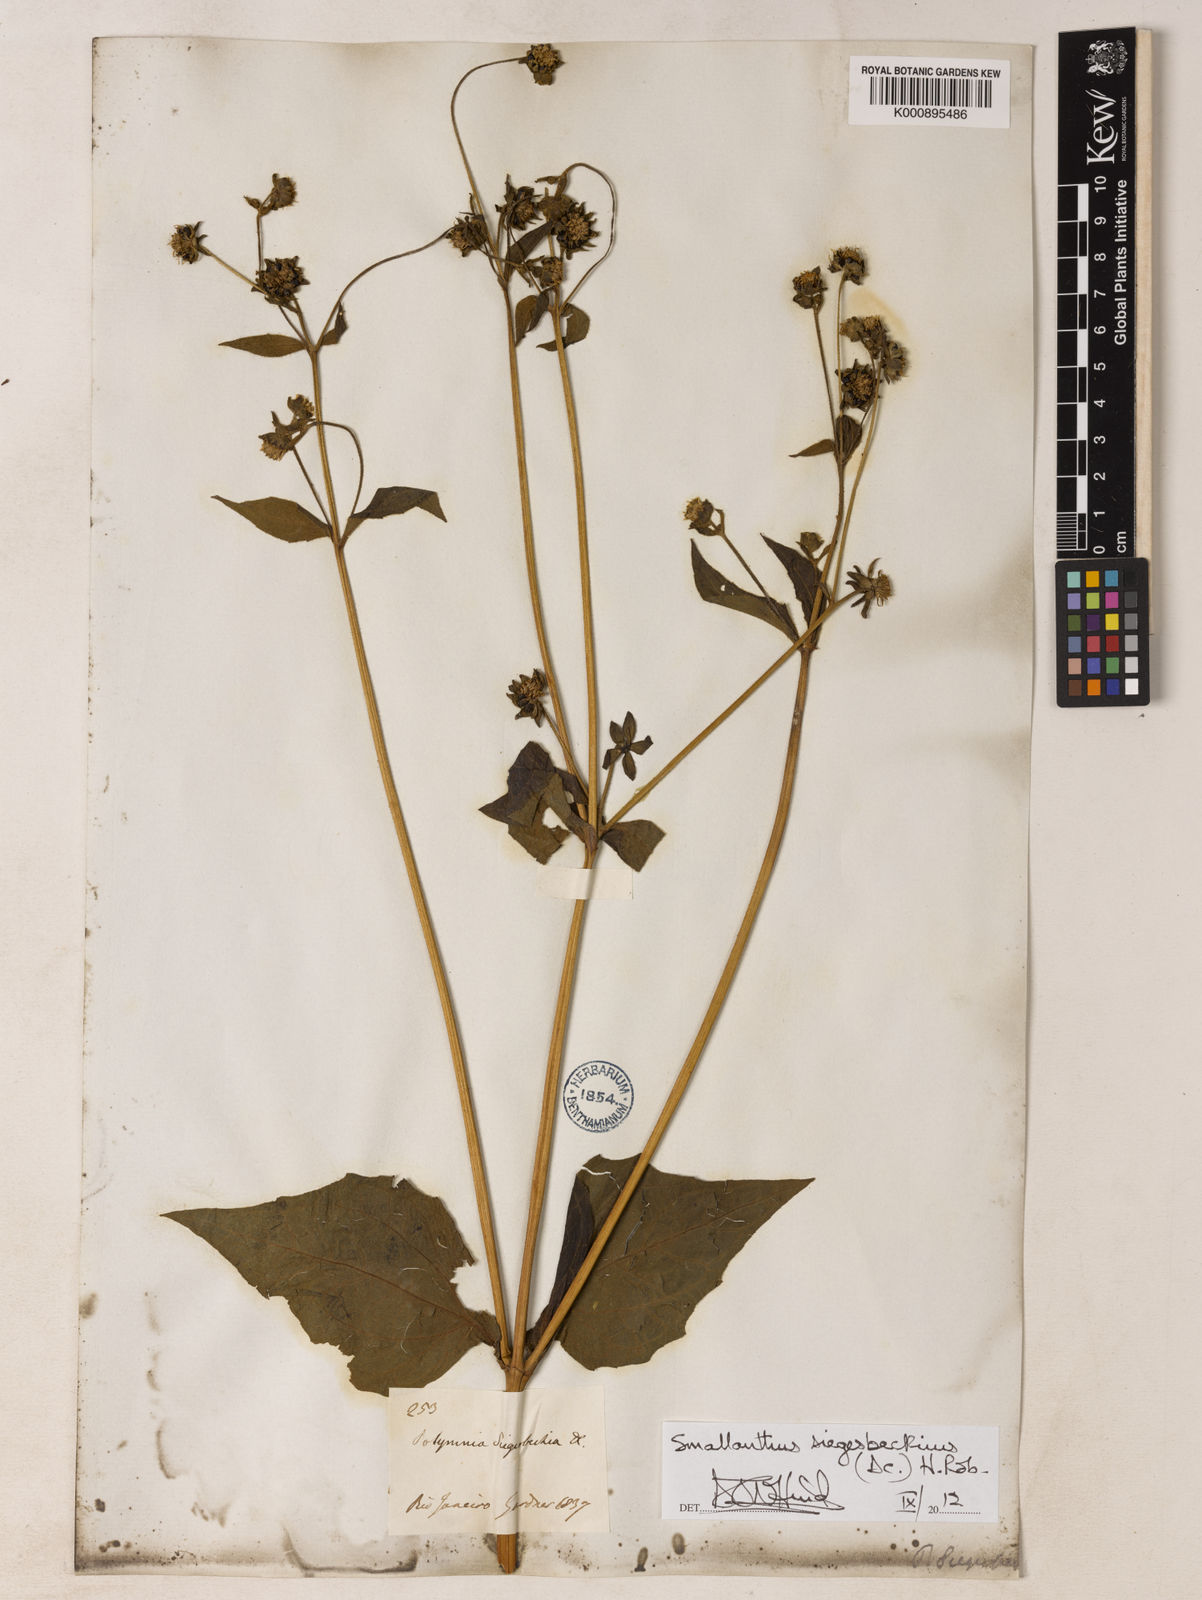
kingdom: Plantae
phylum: Tracheophyta
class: Magnoliopsida
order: Asterales
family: Asteraceae
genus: Smallanthus
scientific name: Smallanthus siegesbeckius
